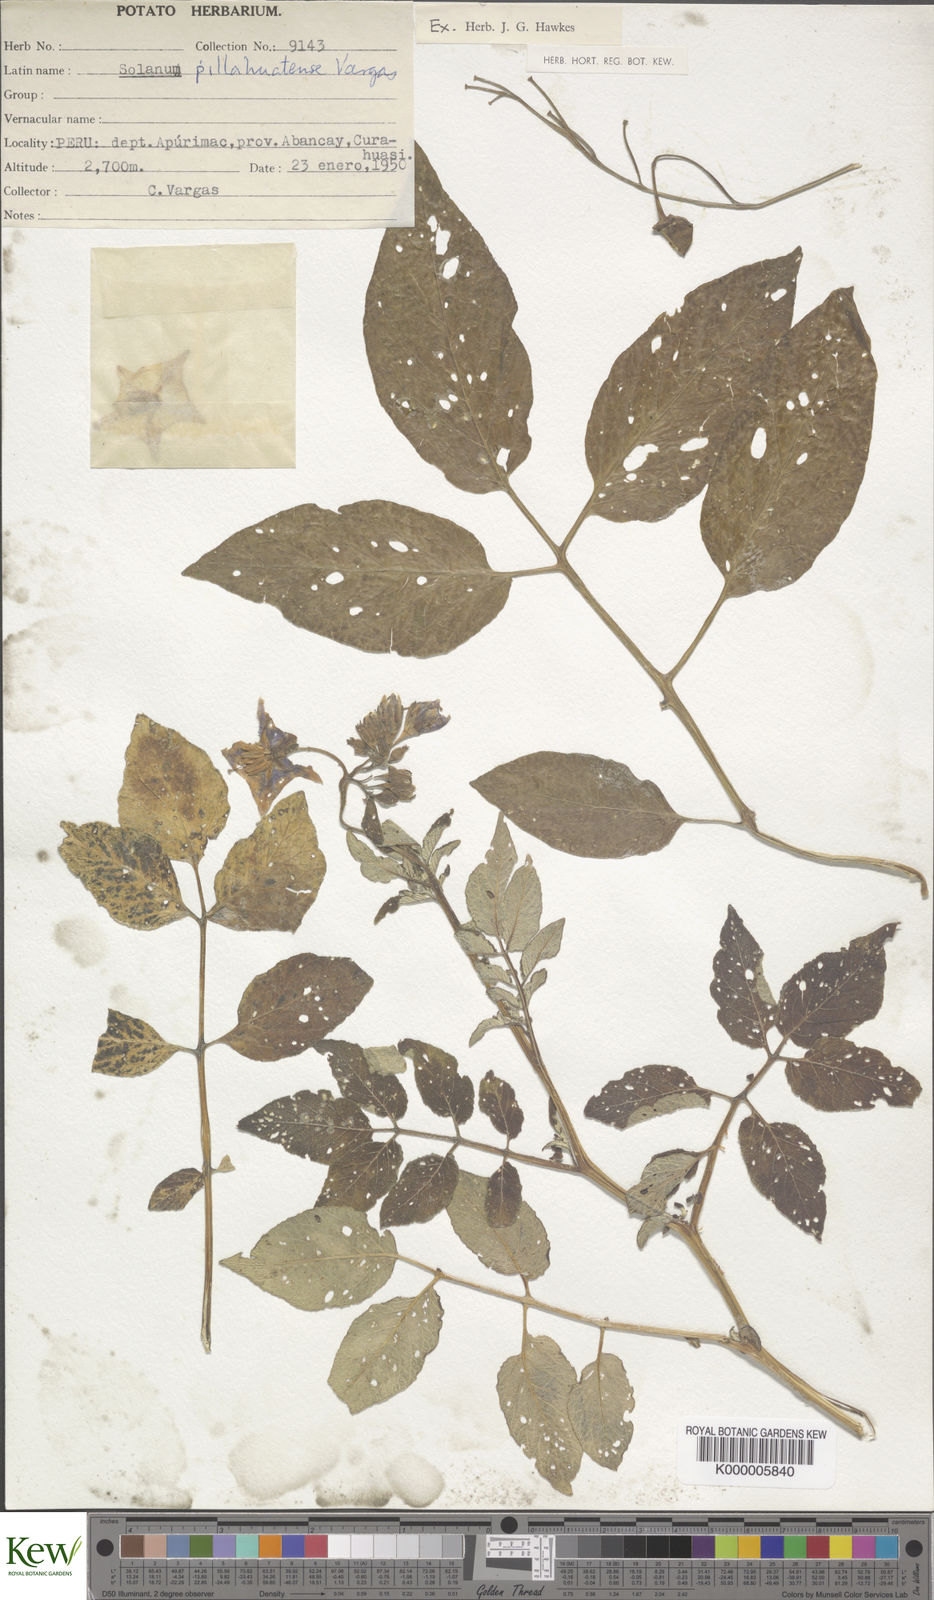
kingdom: Plantae
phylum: Tracheophyta
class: Magnoliopsida
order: Solanales
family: Solanaceae
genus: Solanum
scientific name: Solanum pillahuatense
